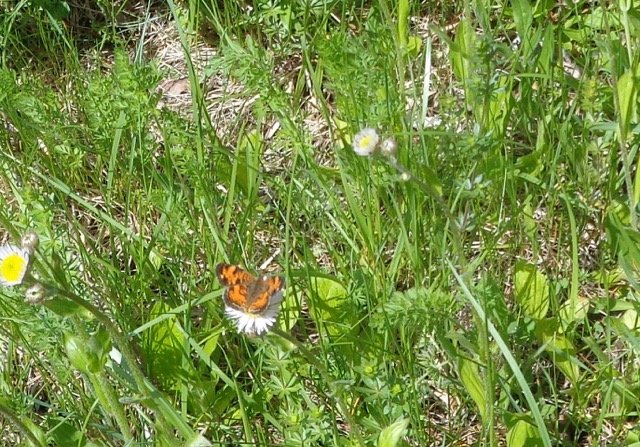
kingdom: Animalia
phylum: Arthropoda
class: Insecta
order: Lepidoptera
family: Nymphalidae
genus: Phyciodes
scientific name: Phyciodes tharos
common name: Pearl Crescent
